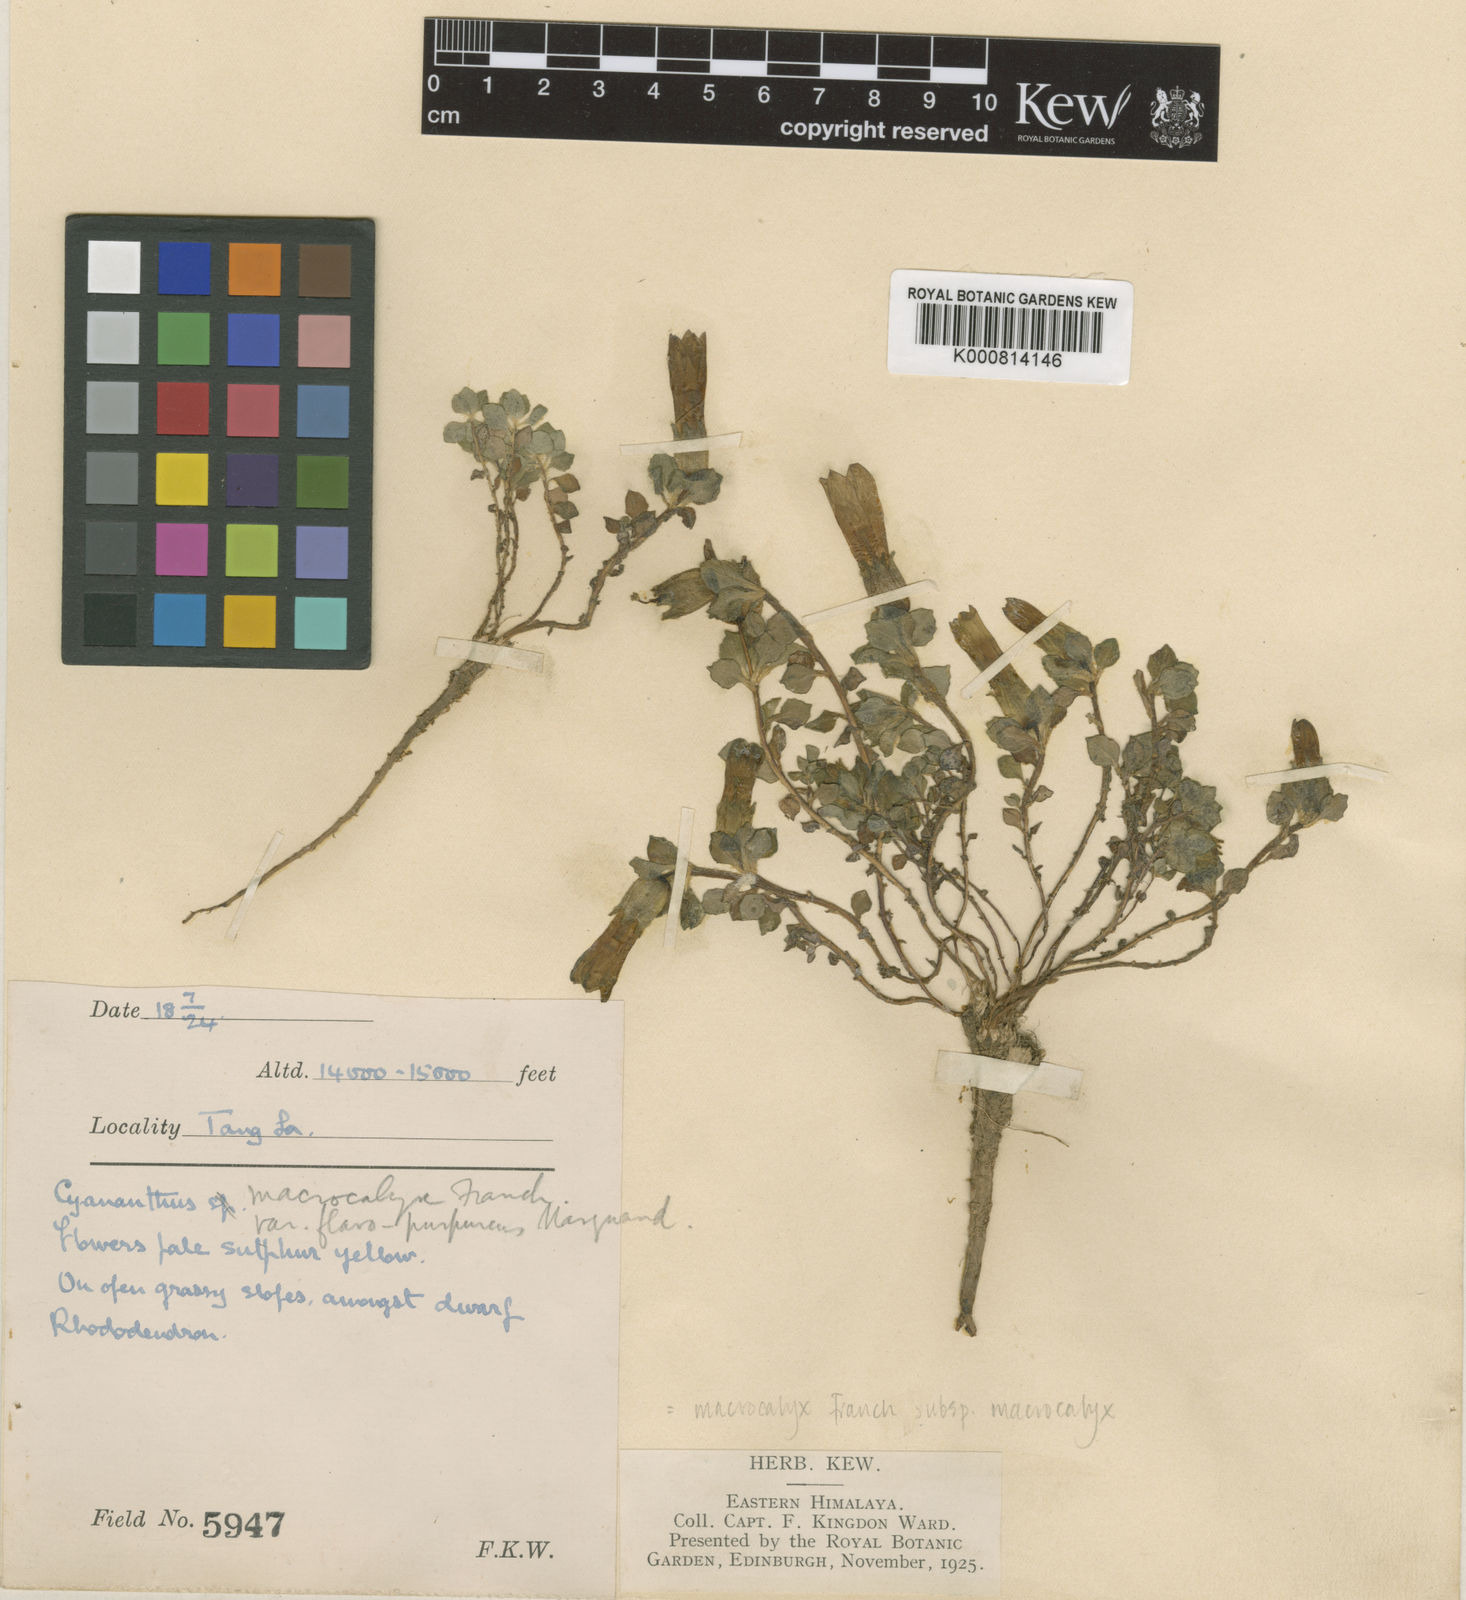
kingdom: Plantae
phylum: Tracheophyta
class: Magnoliopsida
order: Asterales
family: Campanulaceae
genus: Cyananthus
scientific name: Cyananthus macrocalyx
